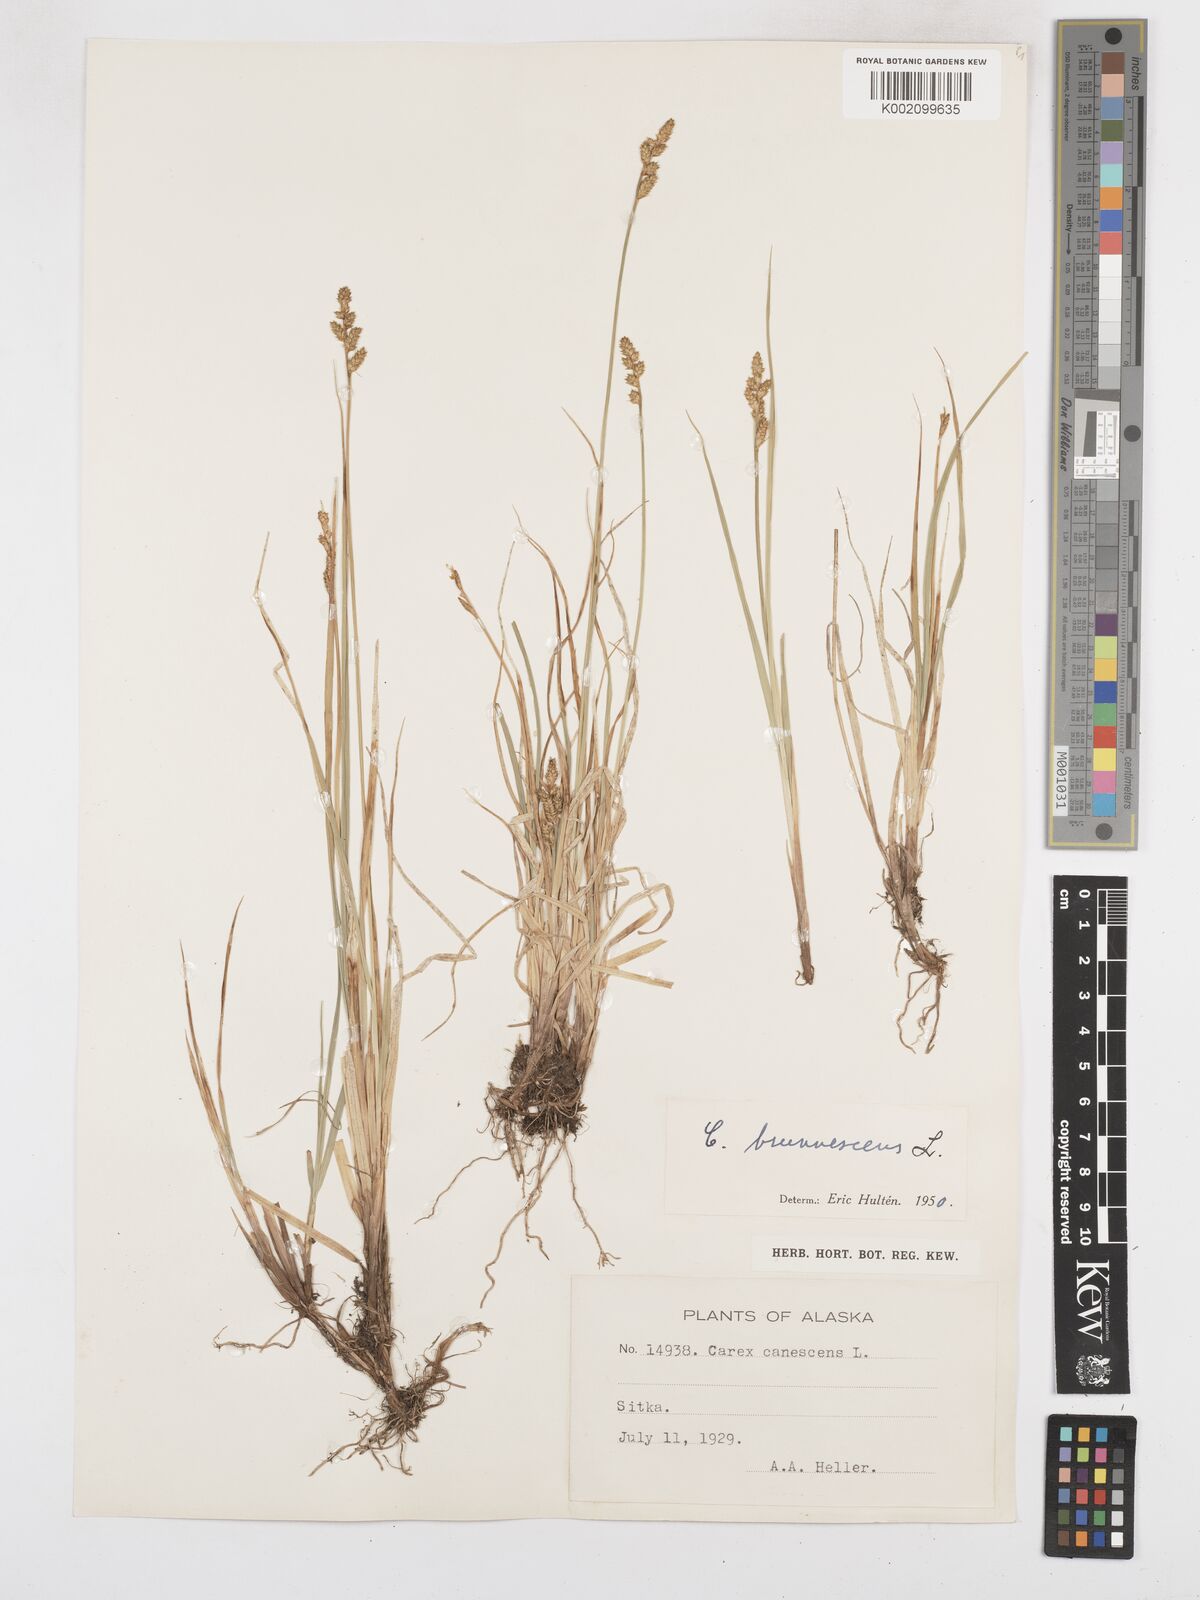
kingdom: Plantae
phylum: Tracheophyta
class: Liliopsida
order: Poales
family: Cyperaceae
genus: Carex
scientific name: Carex brunnescens
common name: Brown sedge
